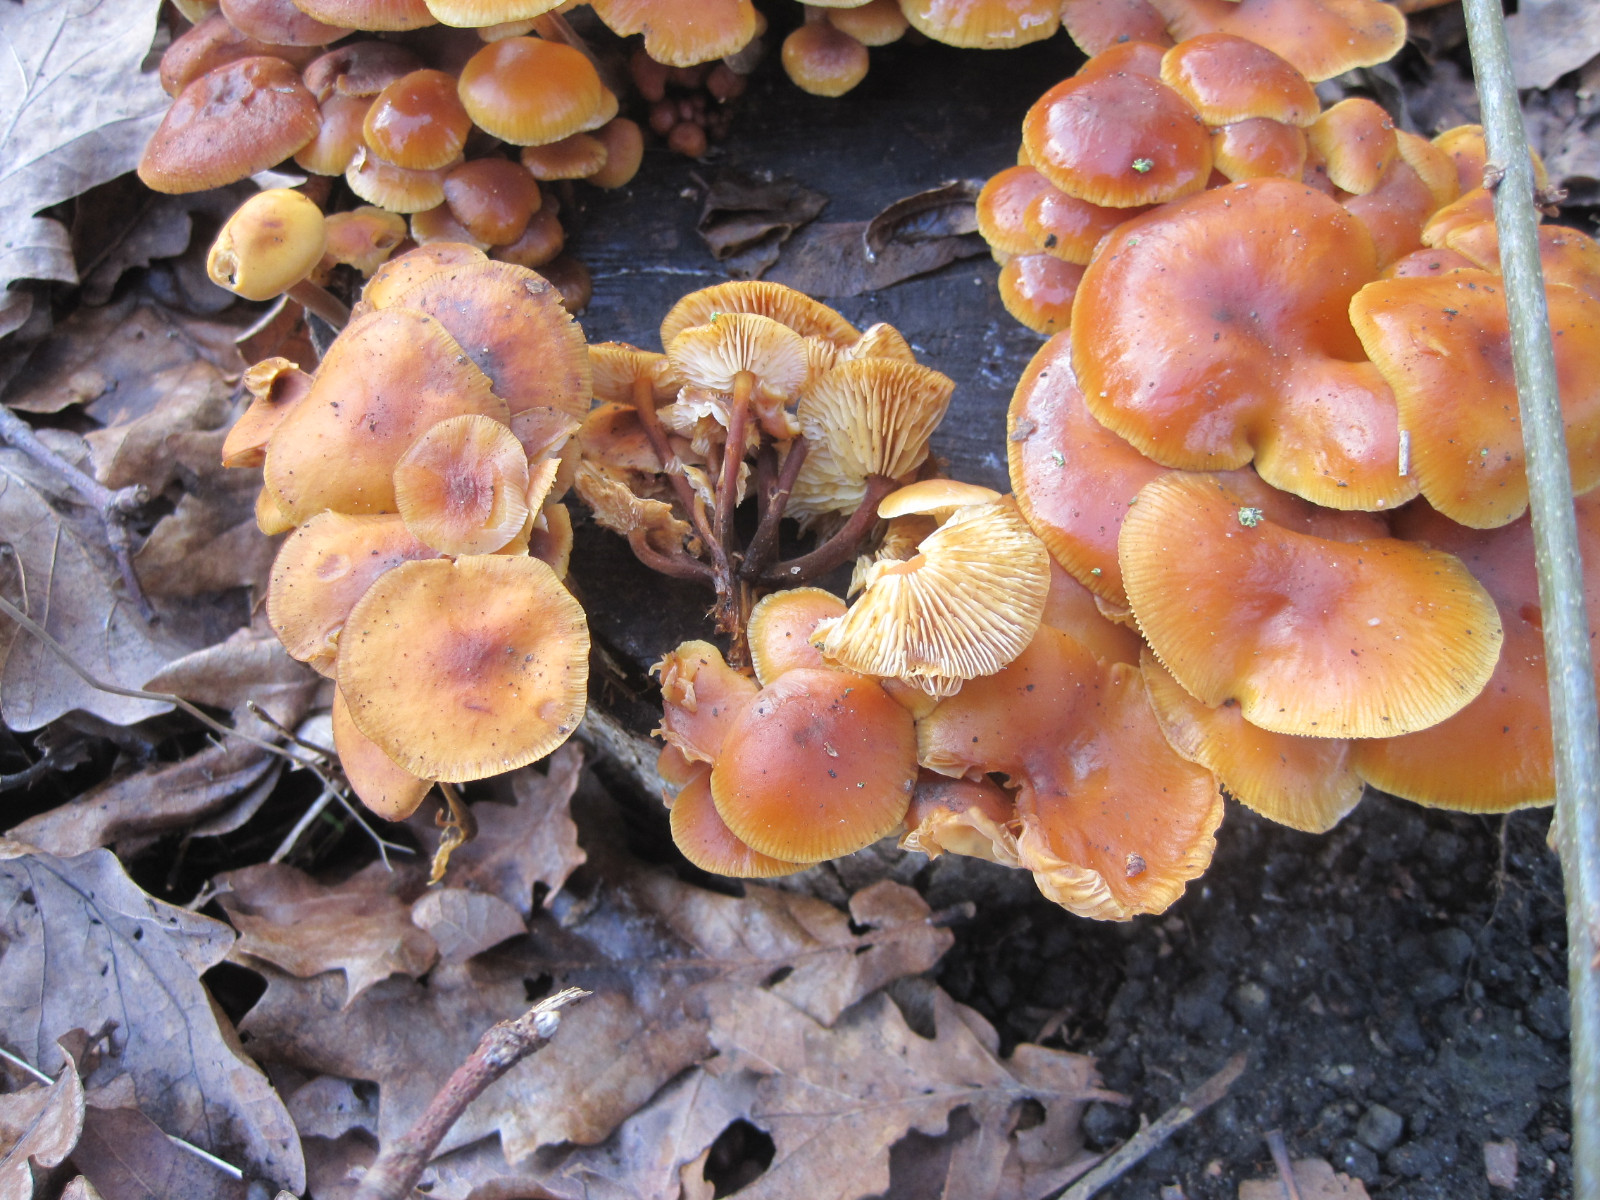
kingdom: Fungi
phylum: Basidiomycota
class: Agaricomycetes
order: Agaricales
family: Physalacriaceae
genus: Flammulina
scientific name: Flammulina velutipes
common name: gul fløjlsfod
